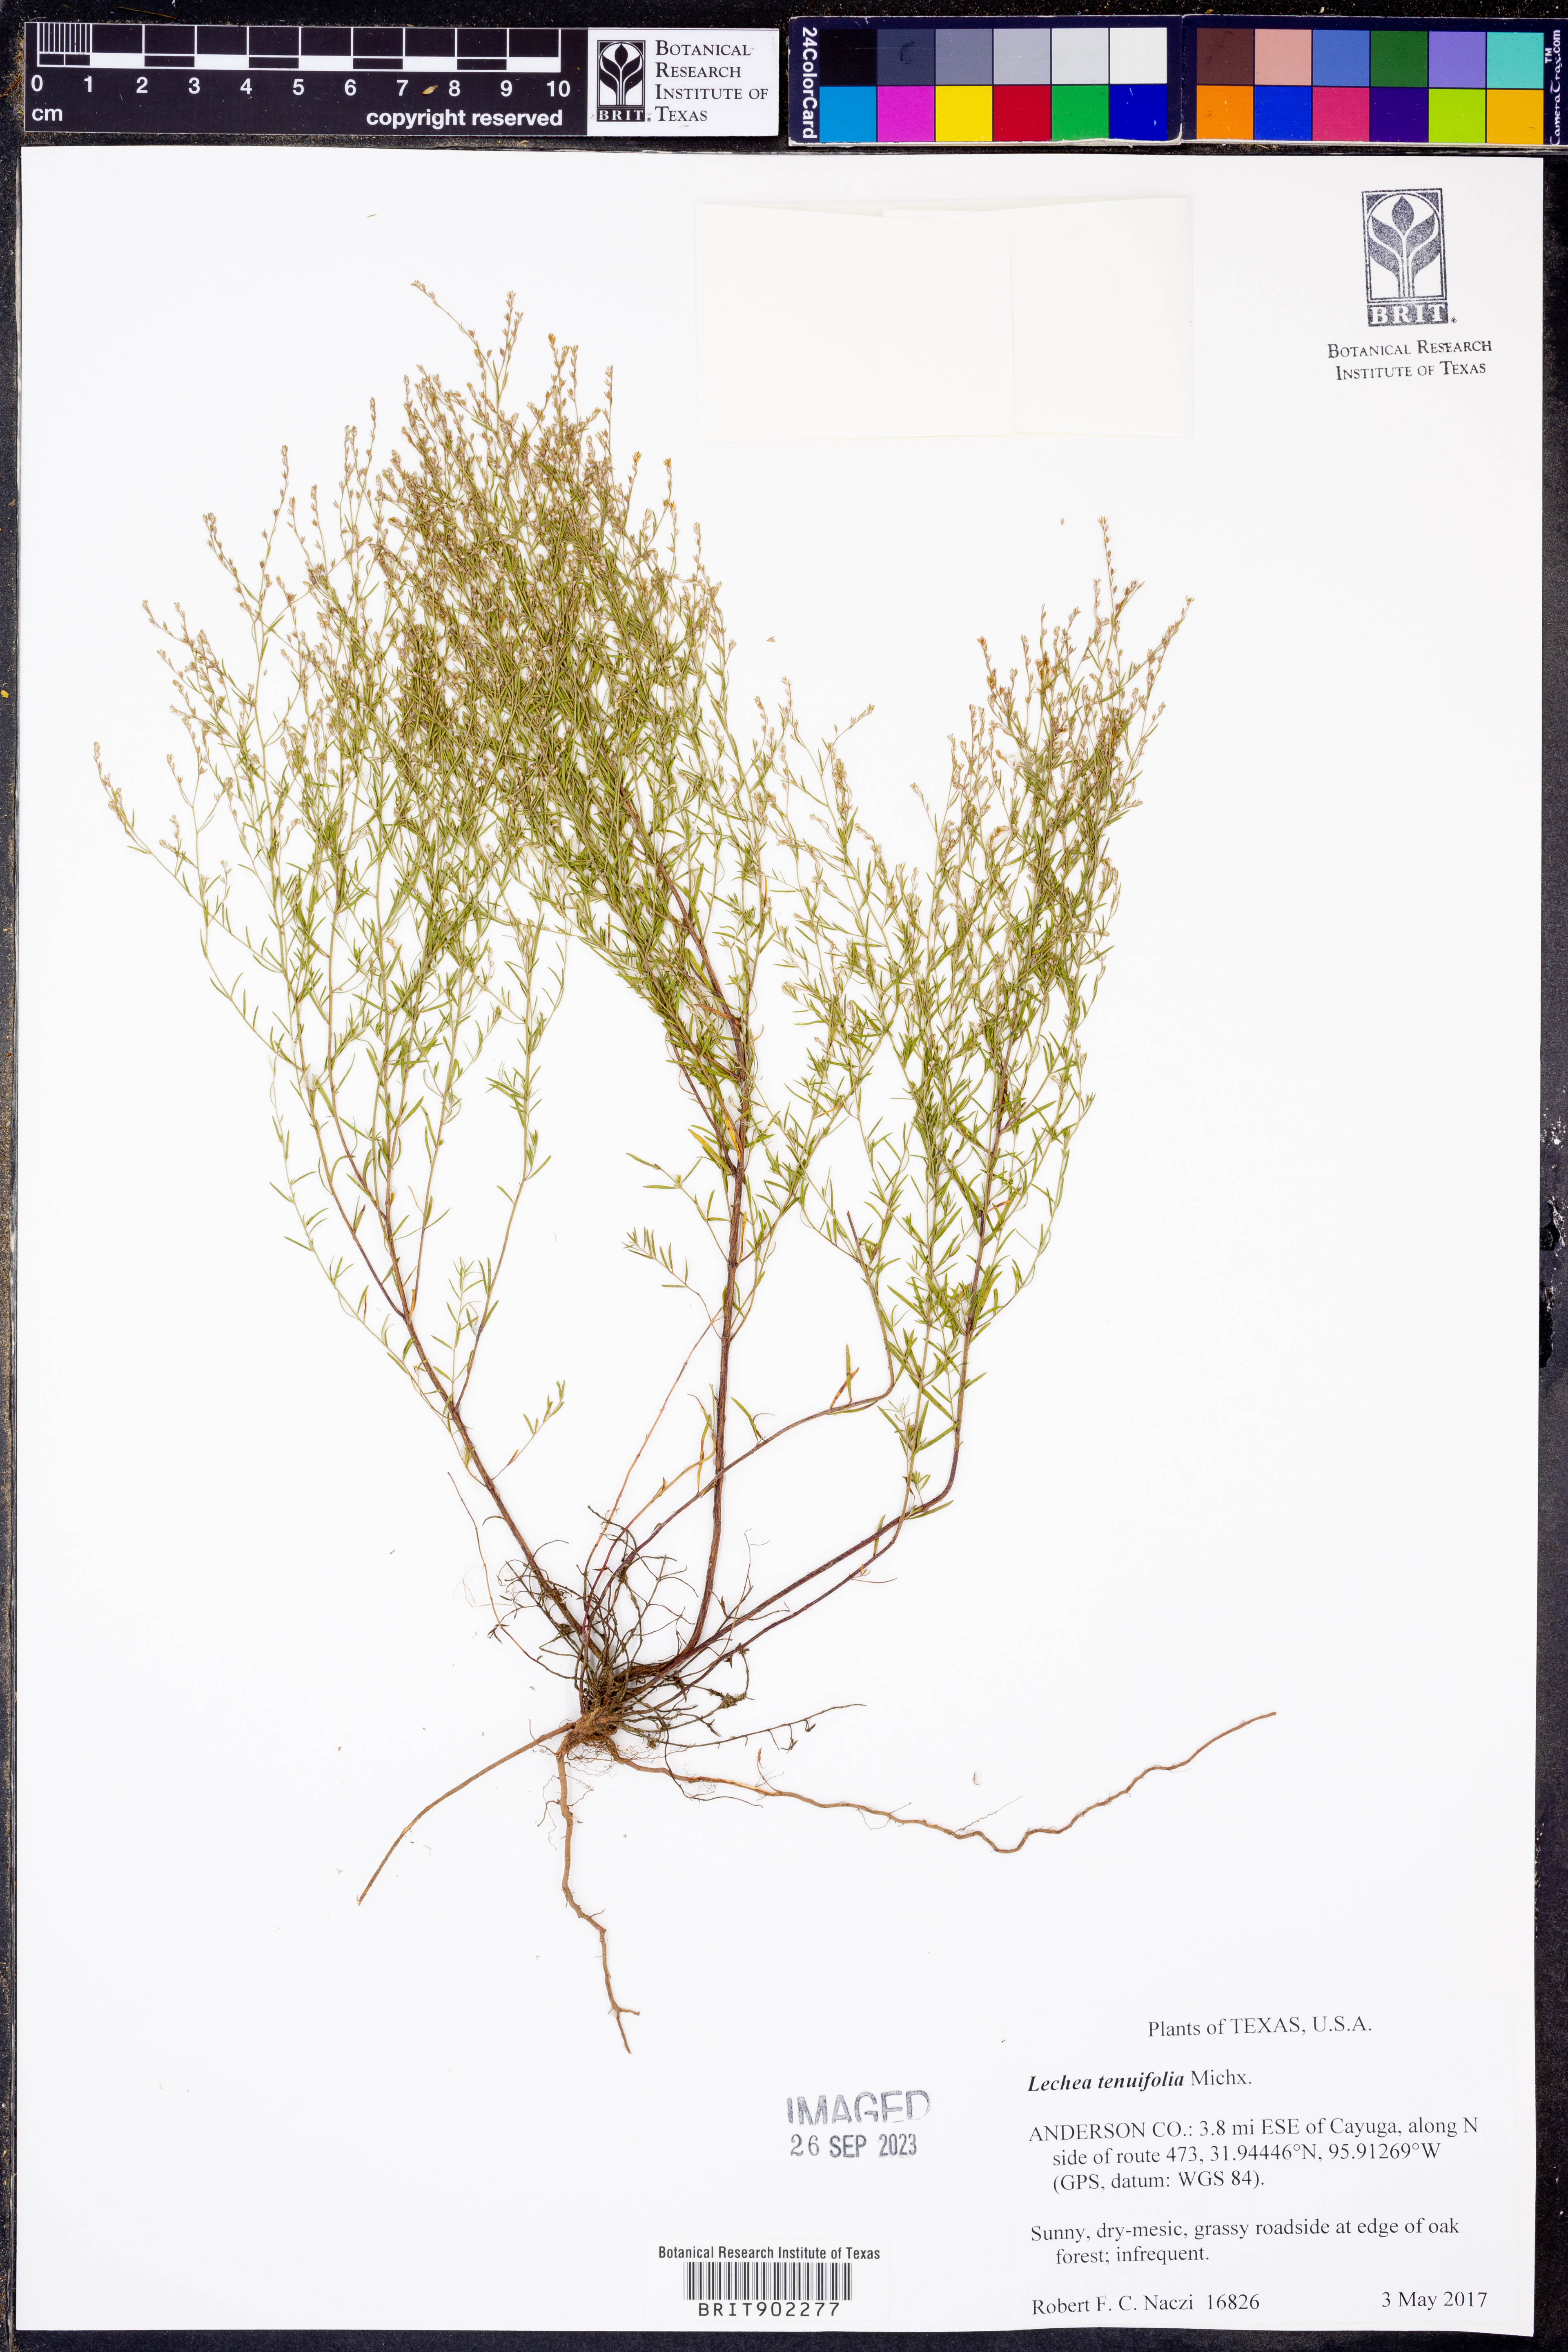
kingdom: Plantae
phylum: Tracheophyta
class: Magnoliopsida
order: Malvales
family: Cistaceae
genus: Lechea
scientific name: Lechea tenuifolia
